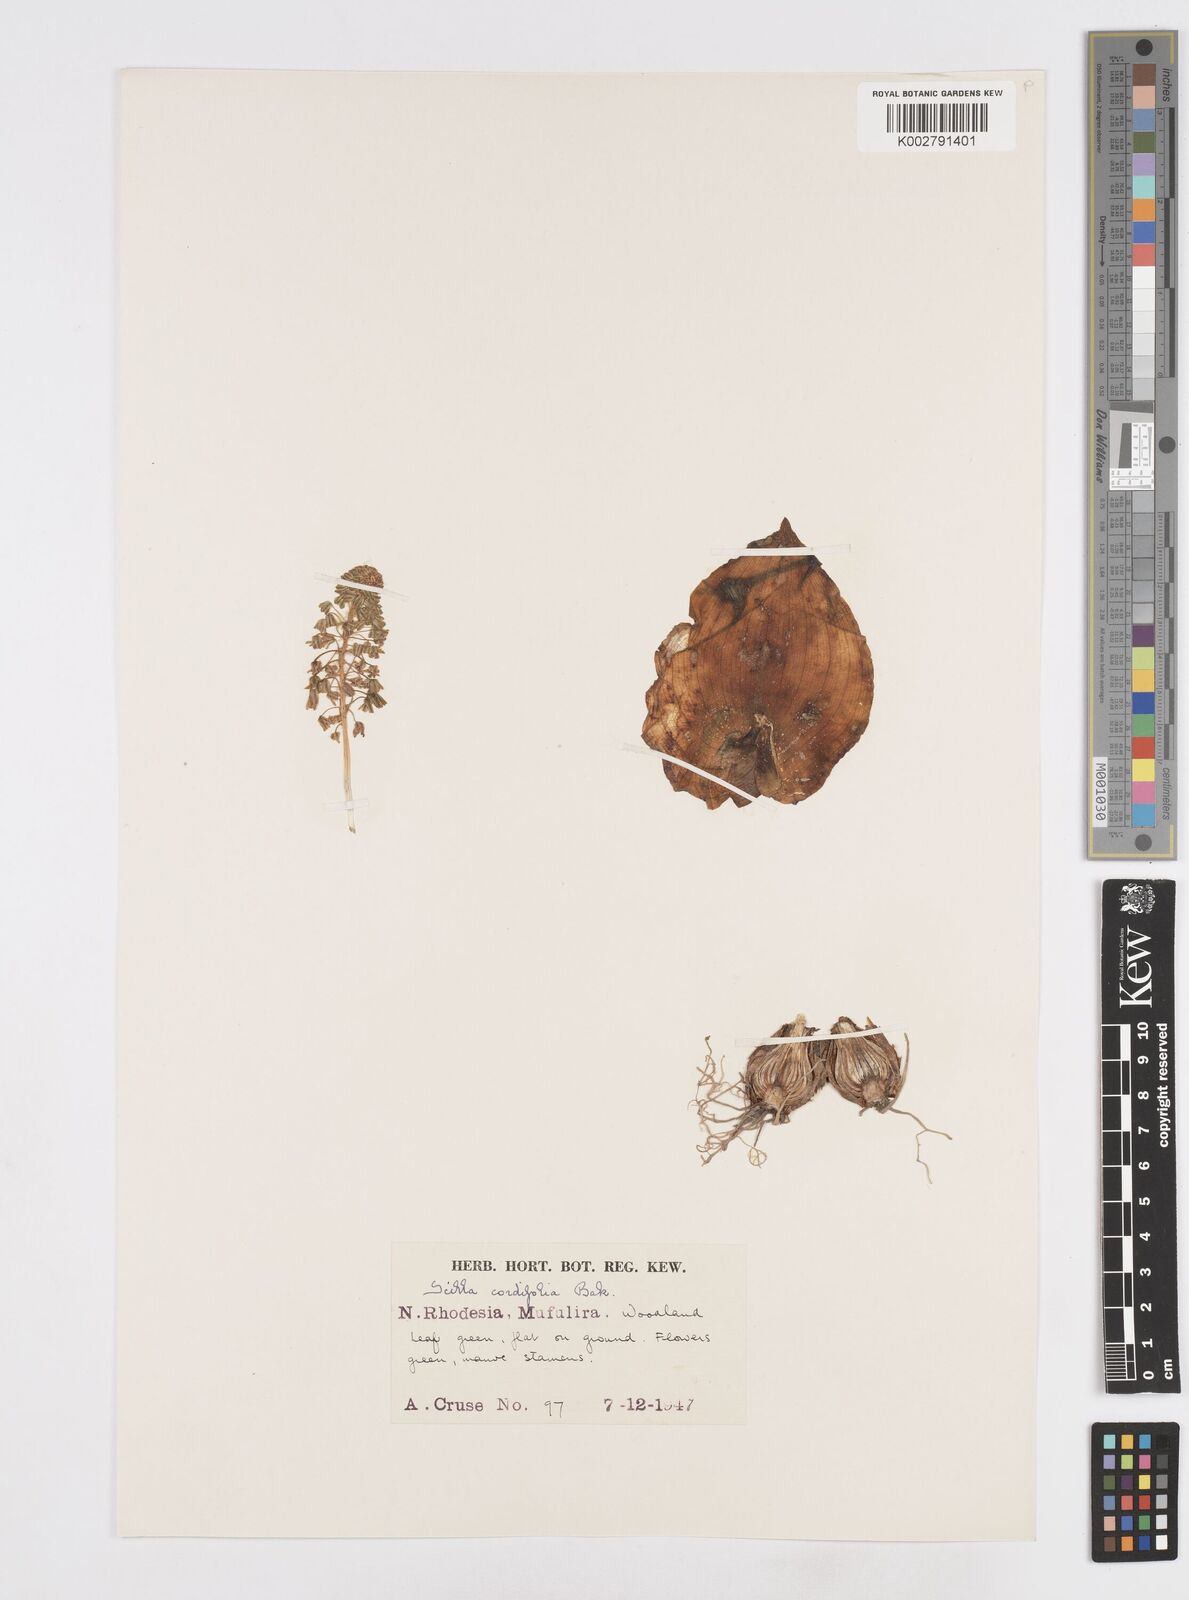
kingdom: Plantae
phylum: Tracheophyta
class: Liliopsida
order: Asparagales
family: Asparagaceae
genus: Ledebouria
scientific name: Ledebouria cordifolia
